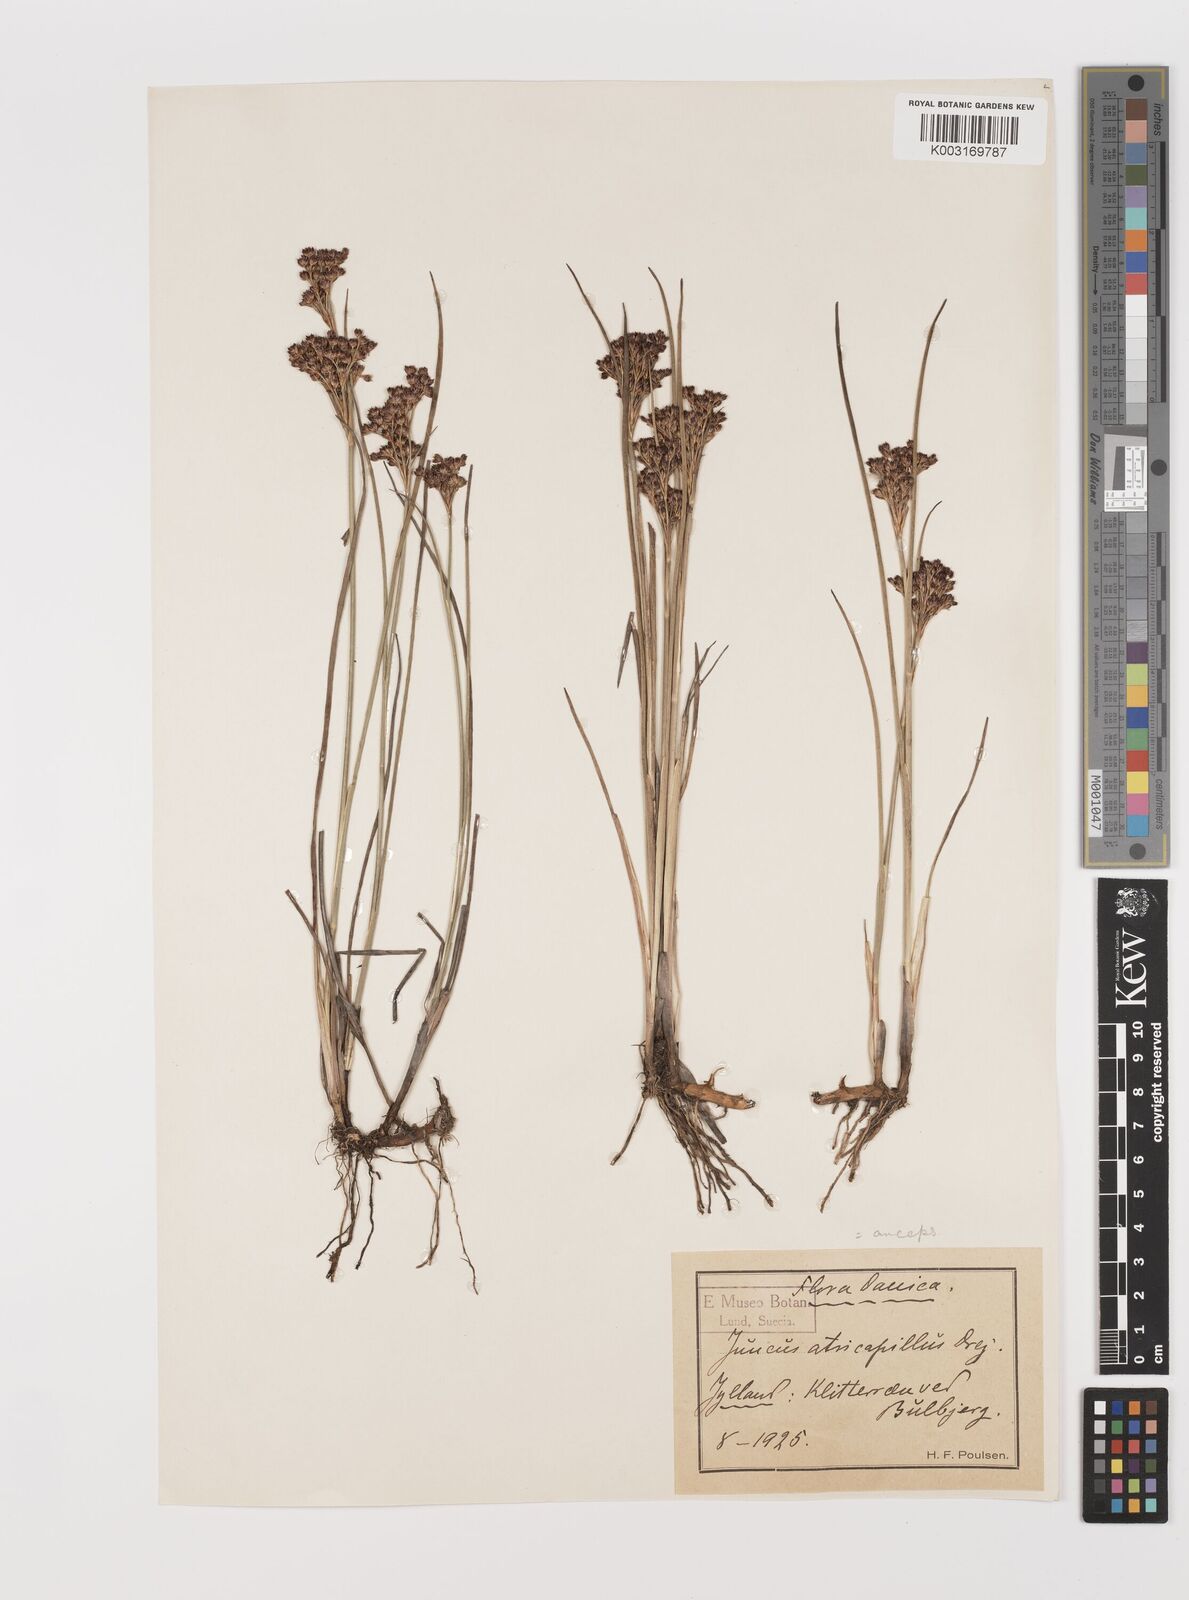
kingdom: Plantae
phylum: Tracheophyta
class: Liliopsida
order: Poales
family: Juncaceae
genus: Juncus
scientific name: Juncus anceps
